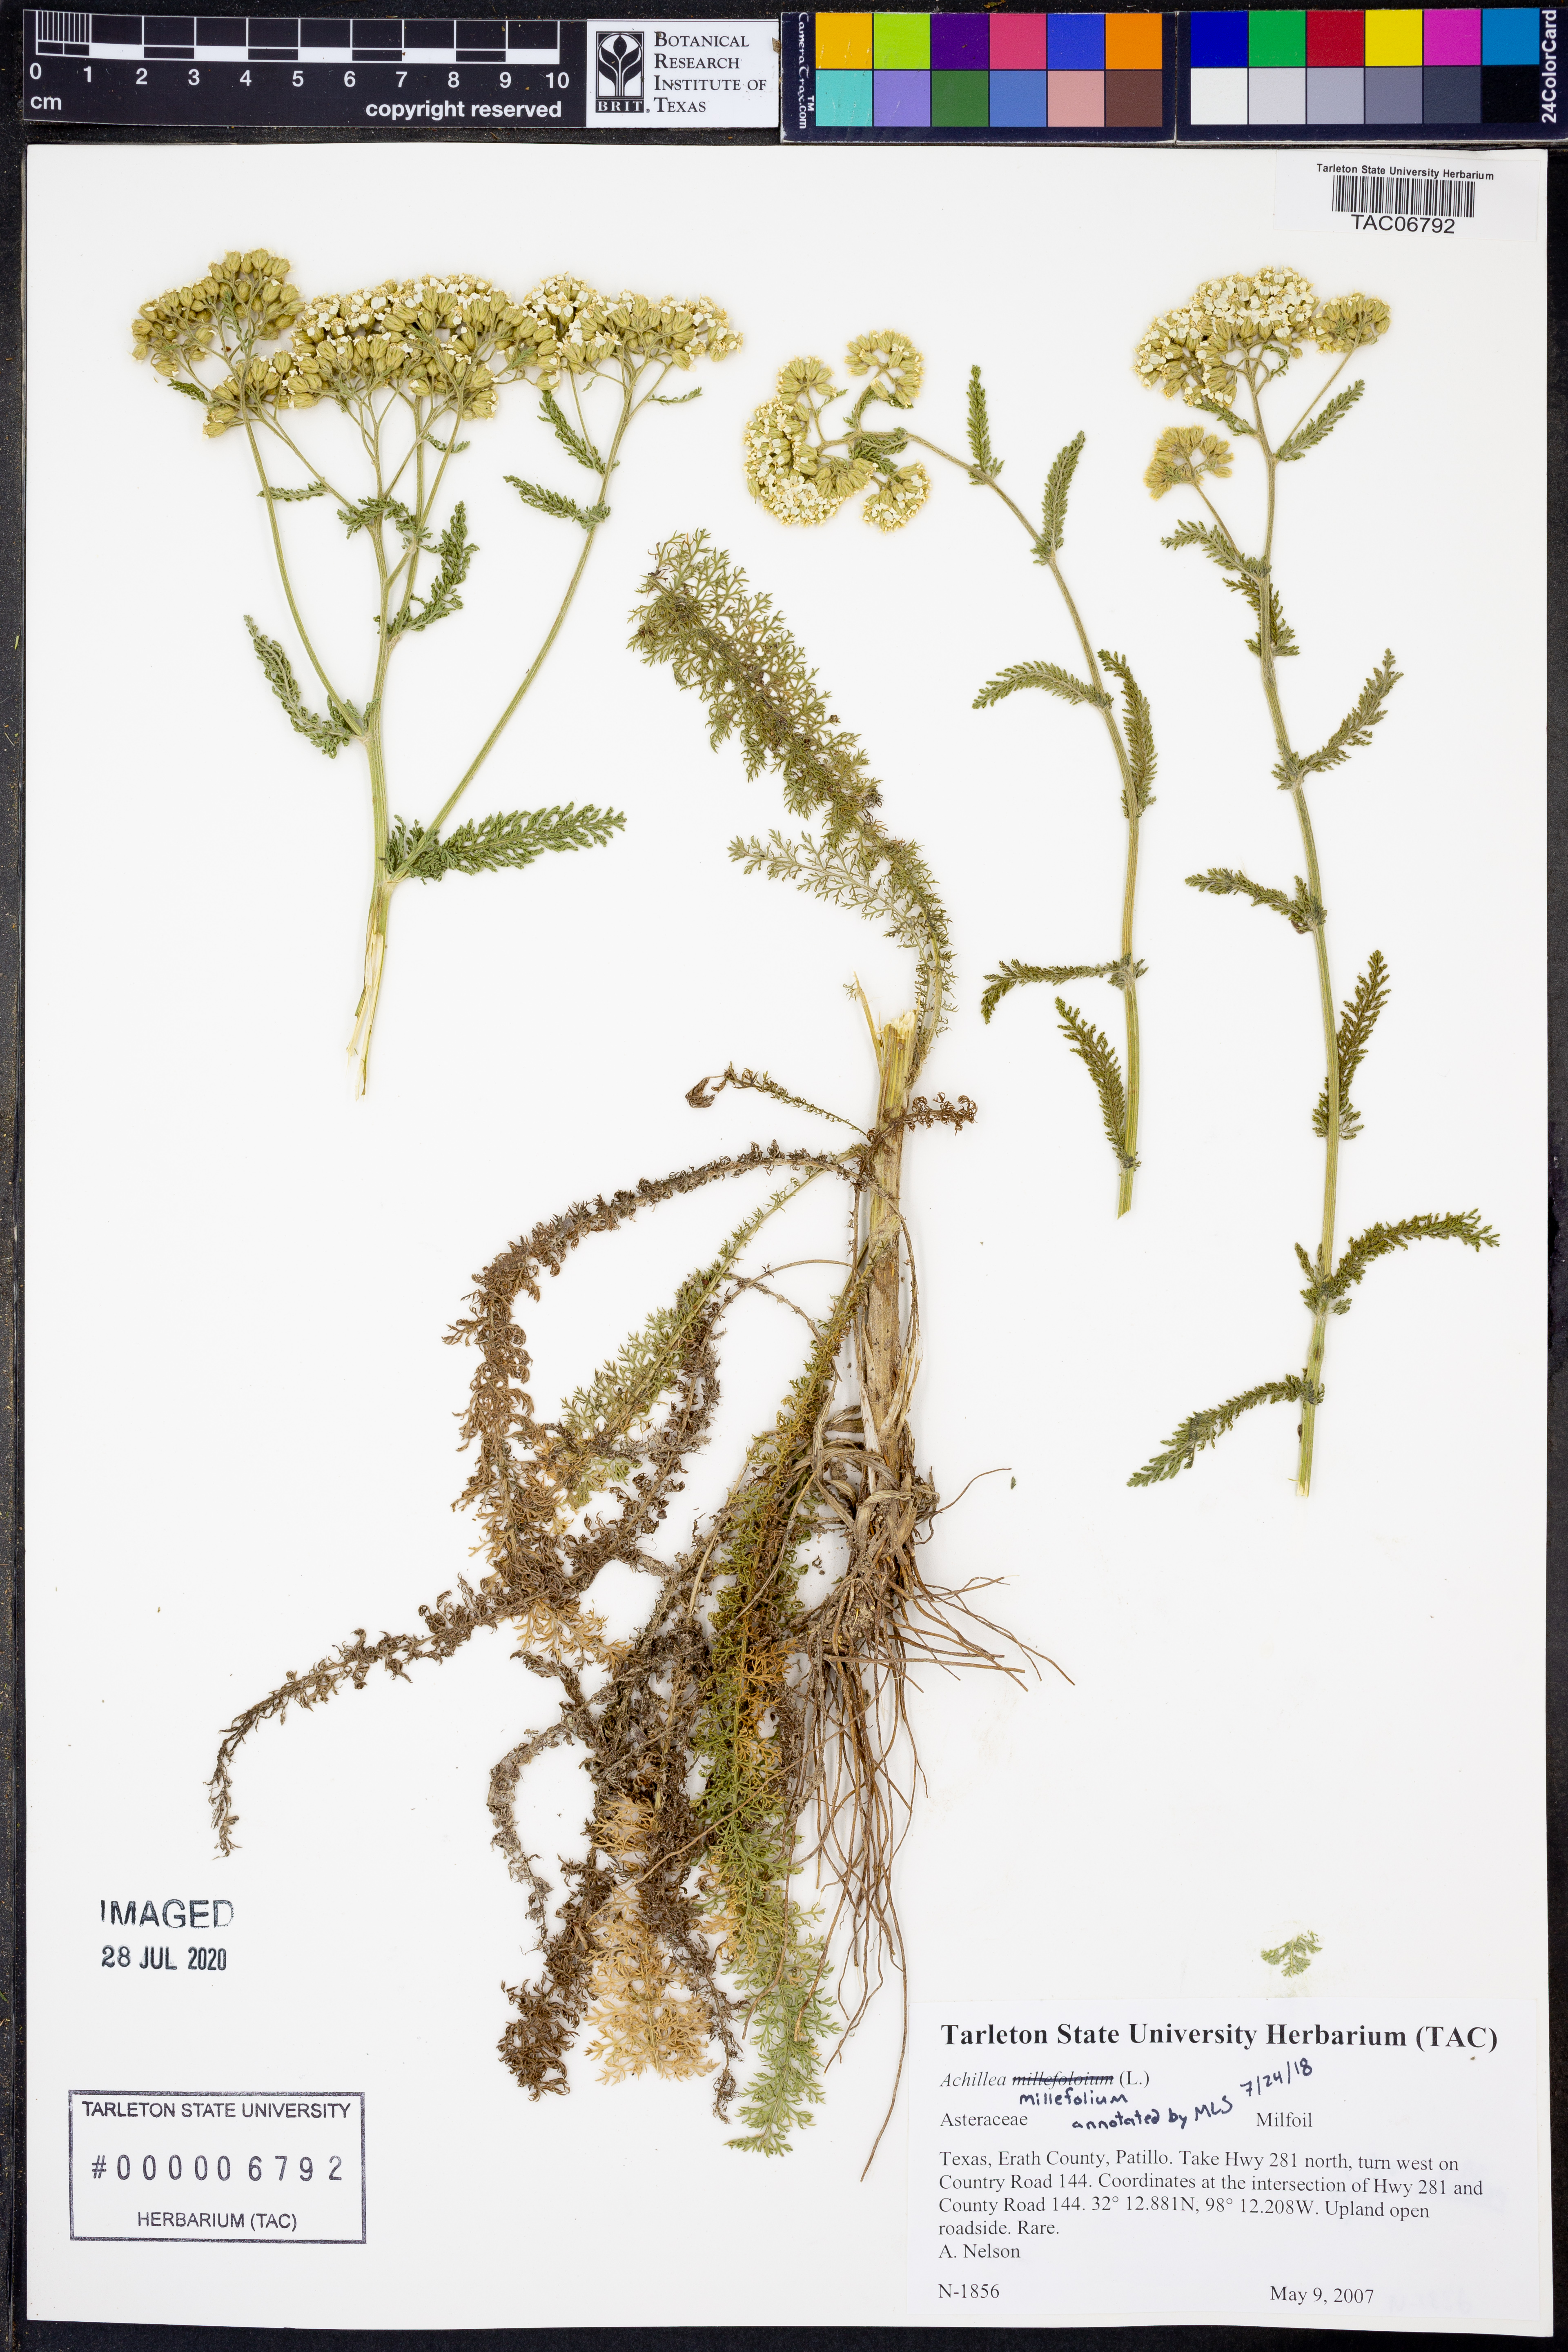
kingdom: Plantae
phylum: Tracheophyta
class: Magnoliopsida
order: Asterales
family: Asteraceae
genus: Achillea
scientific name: Achillea millefolium
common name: Yarrow
